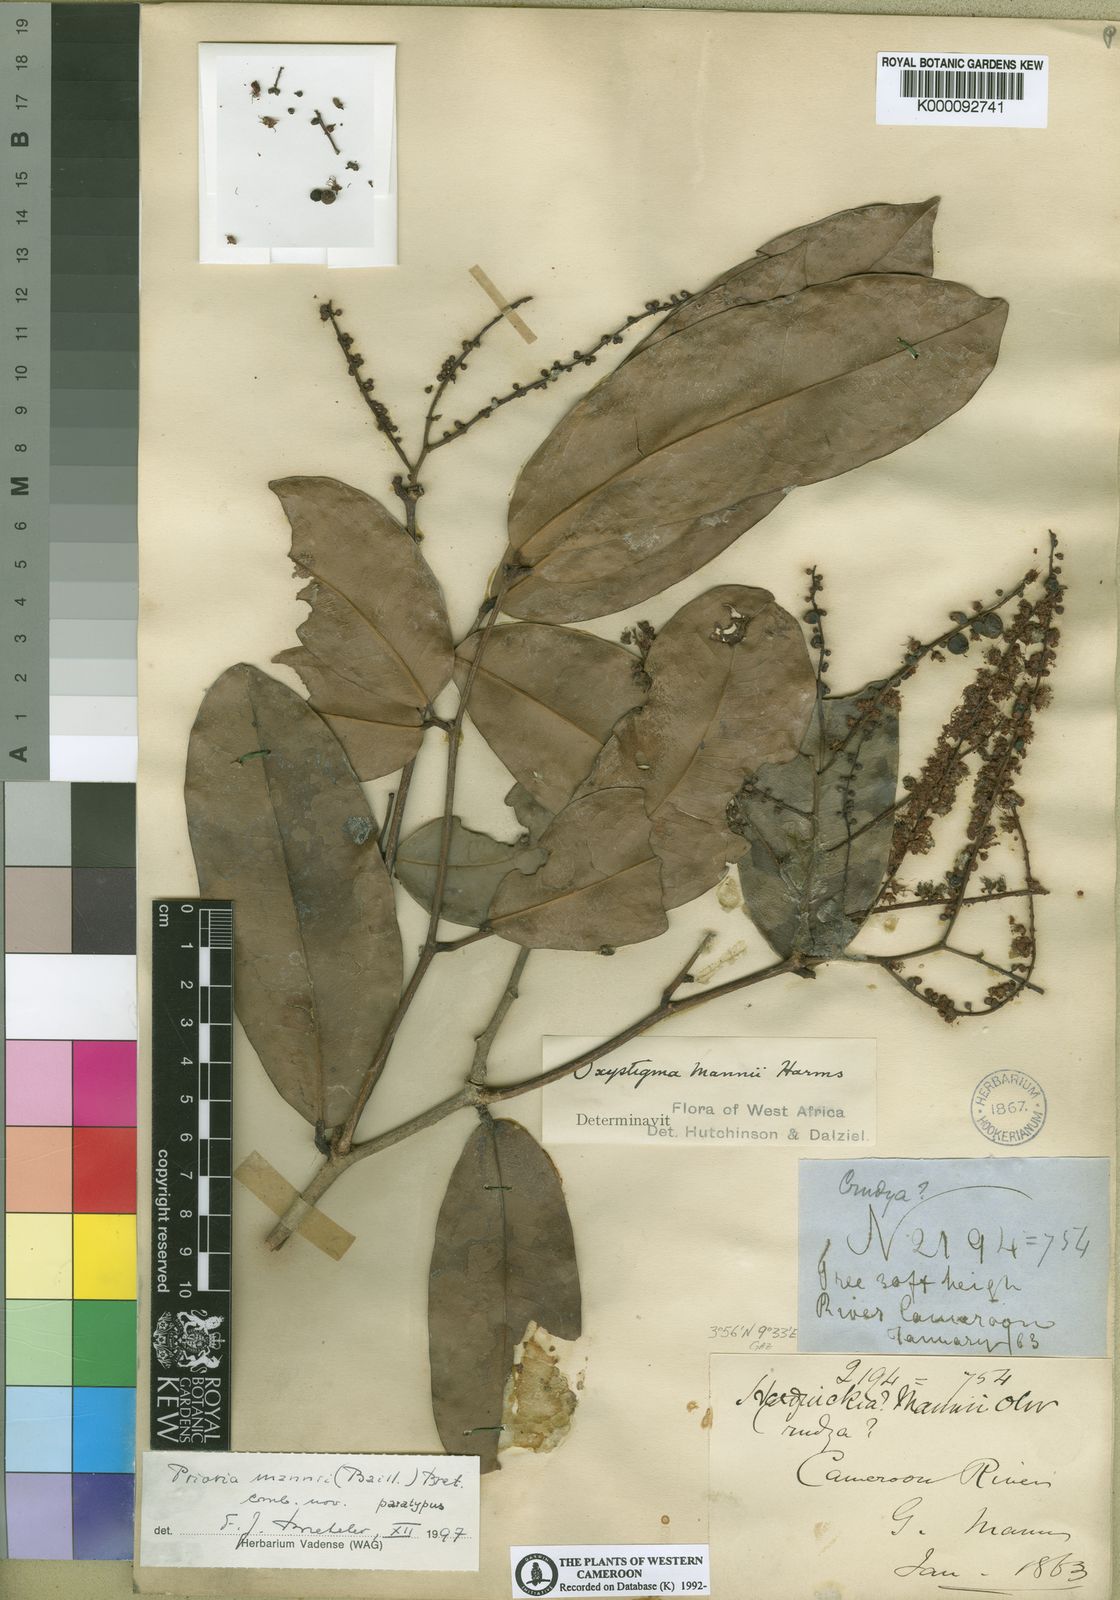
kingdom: Plantae
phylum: Tracheophyta
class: Magnoliopsida
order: Fabales
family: Fabaceae
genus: Prioria
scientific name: Prioria mannii
